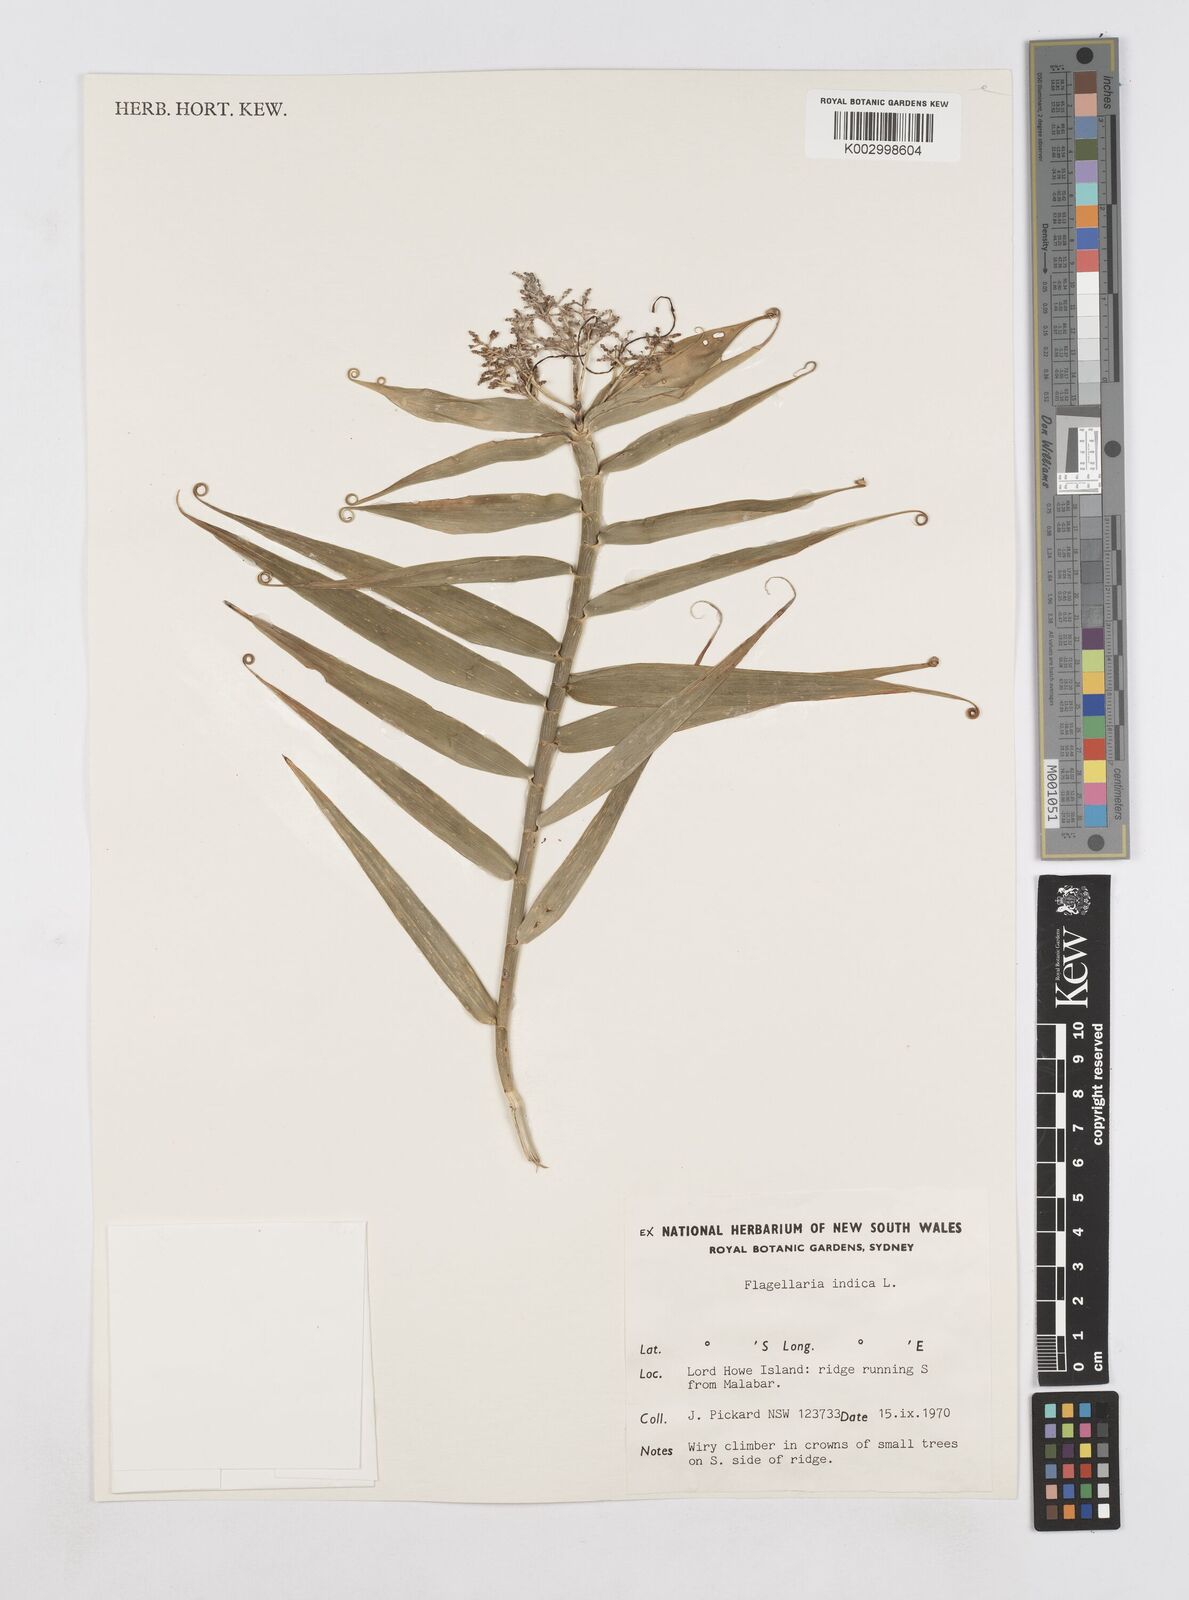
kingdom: Plantae
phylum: Tracheophyta
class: Liliopsida
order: Poales
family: Flagellariaceae
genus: Flagellaria
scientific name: Flagellaria indica
